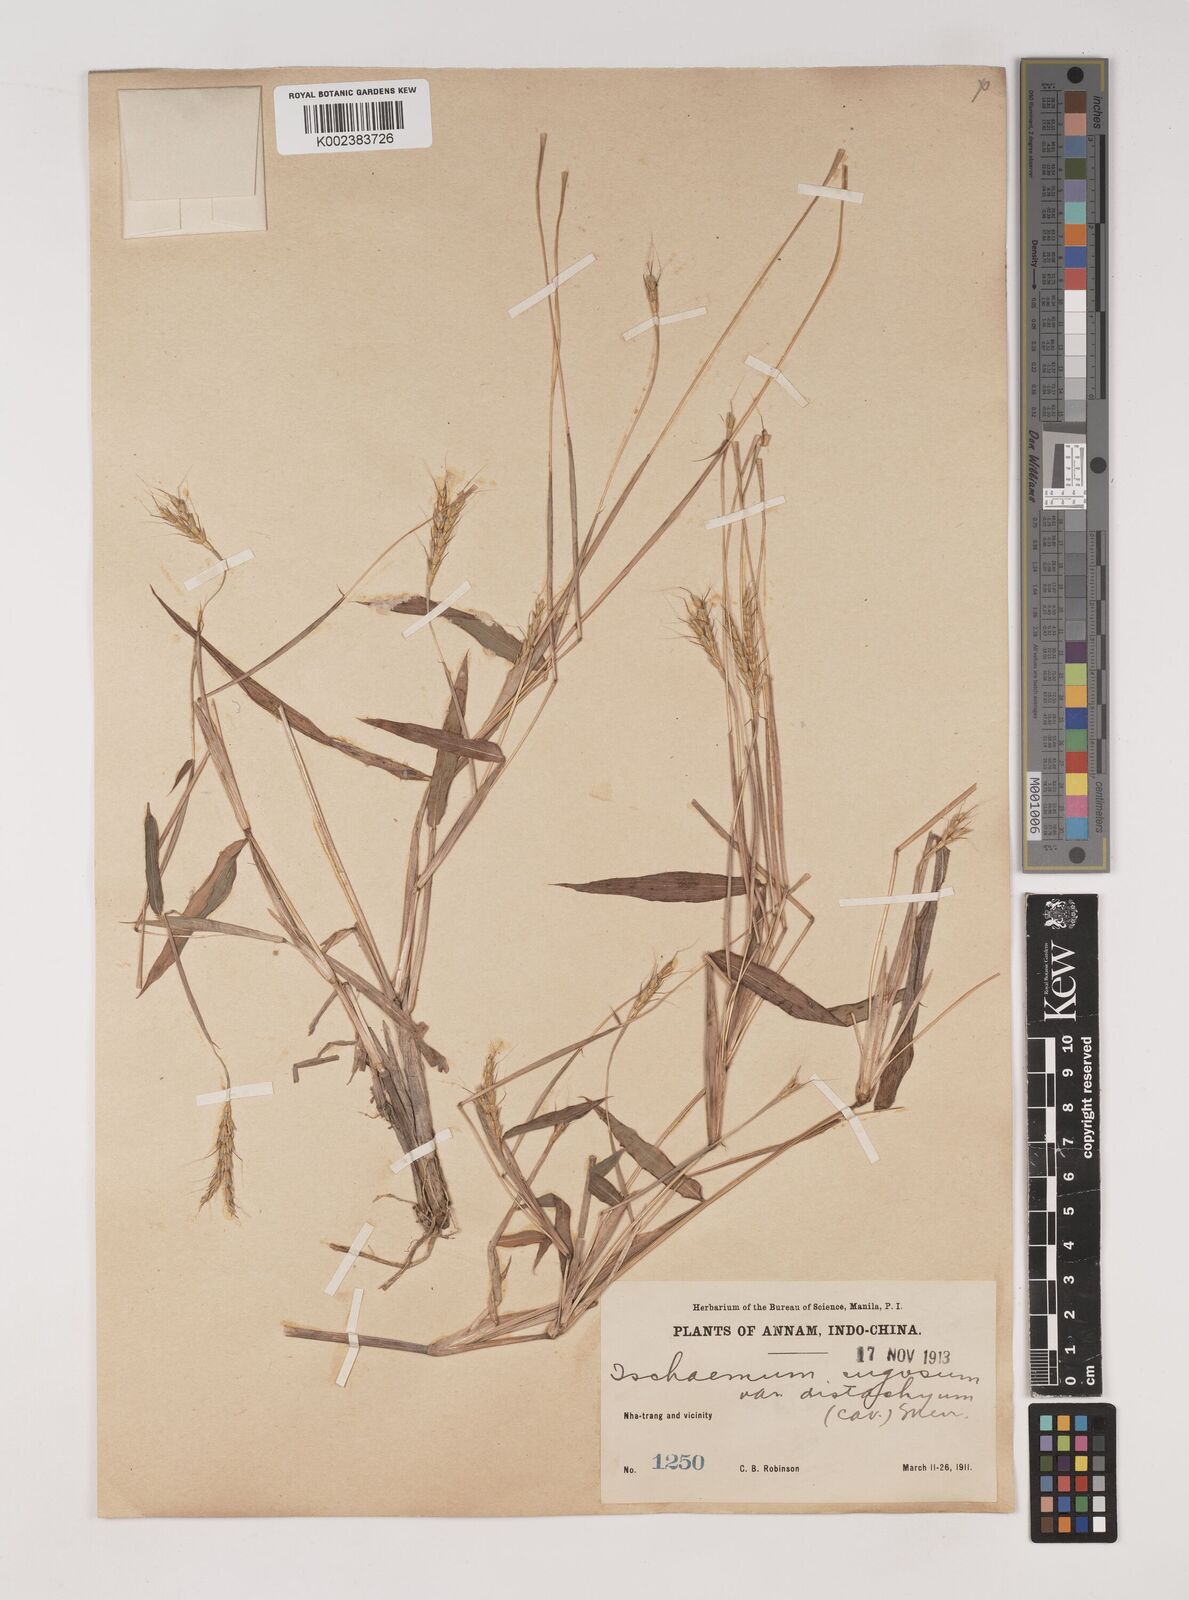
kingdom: Plantae
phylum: Tracheophyta
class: Liliopsida
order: Poales
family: Poaceae
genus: Ischaemum
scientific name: Ischaemum rugosum
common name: Saramatta grass
